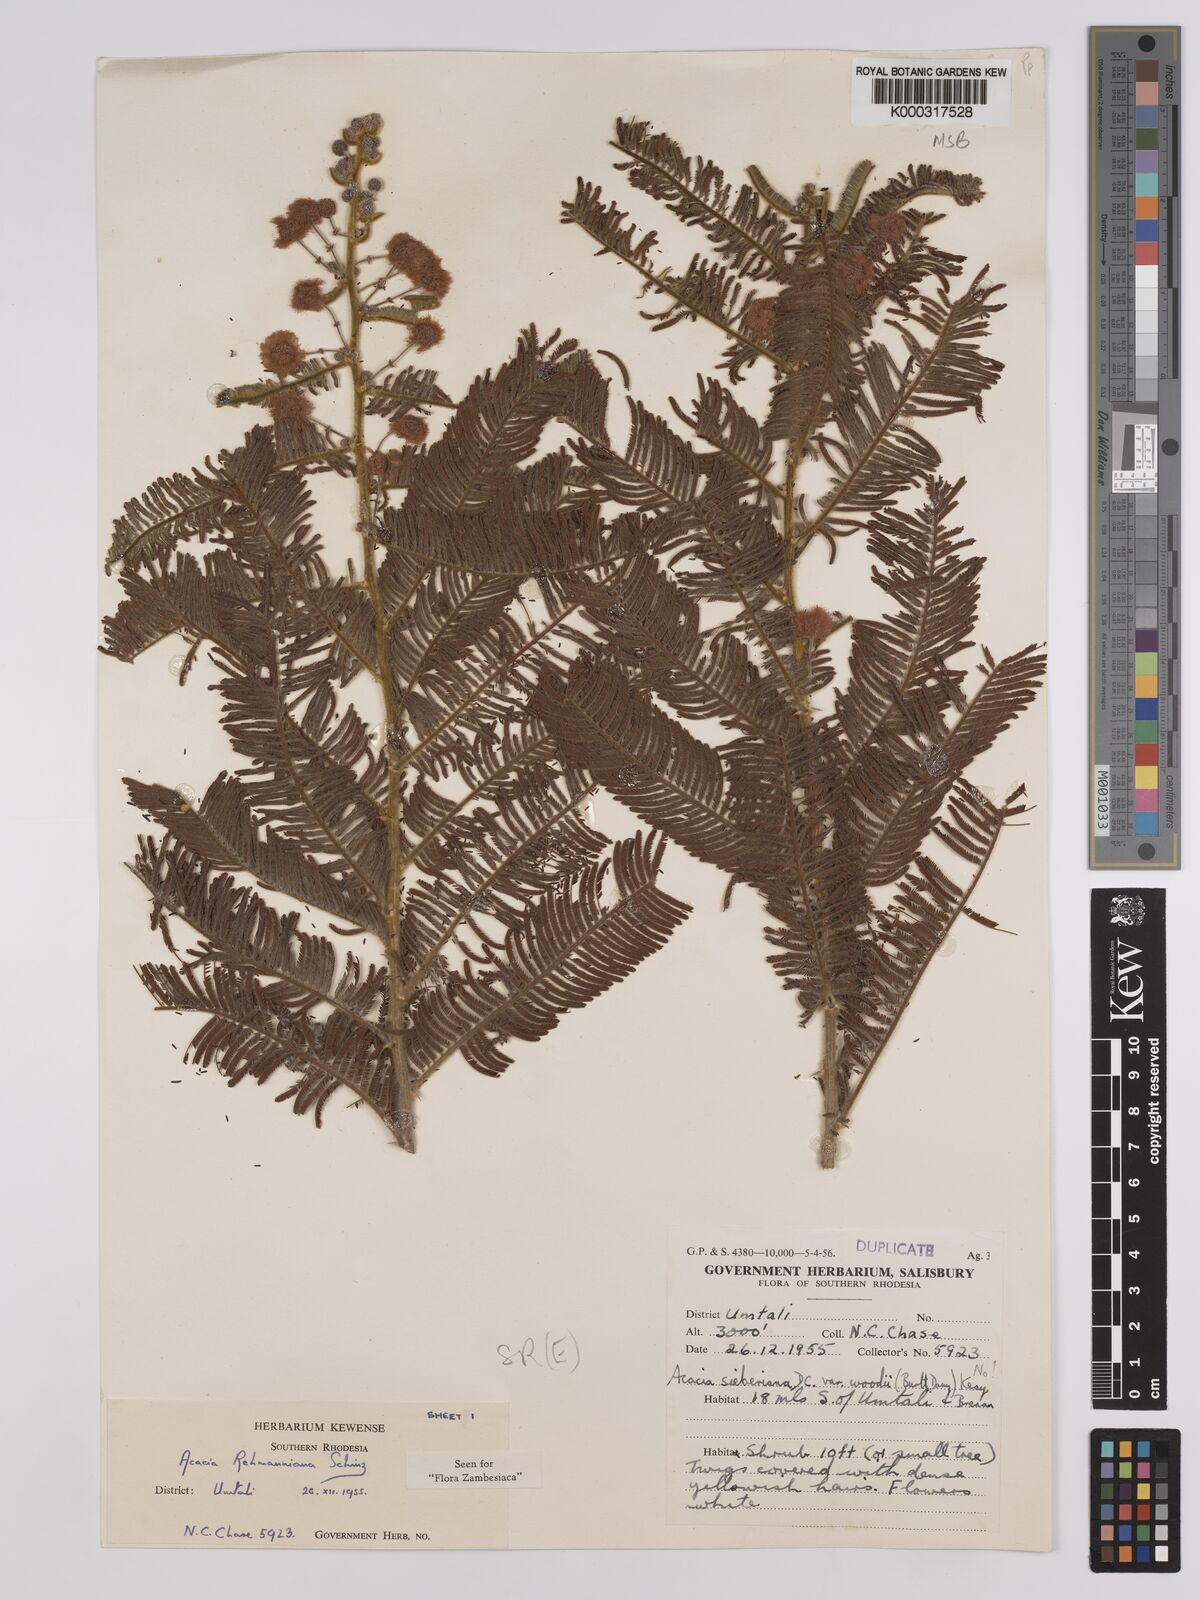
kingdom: Plantae
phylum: Tracheophyta
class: Magnoliopsida
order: Fabales
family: Fabaceae
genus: Vachellia
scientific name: Vachellia rehmanniana
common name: Silky thorn
